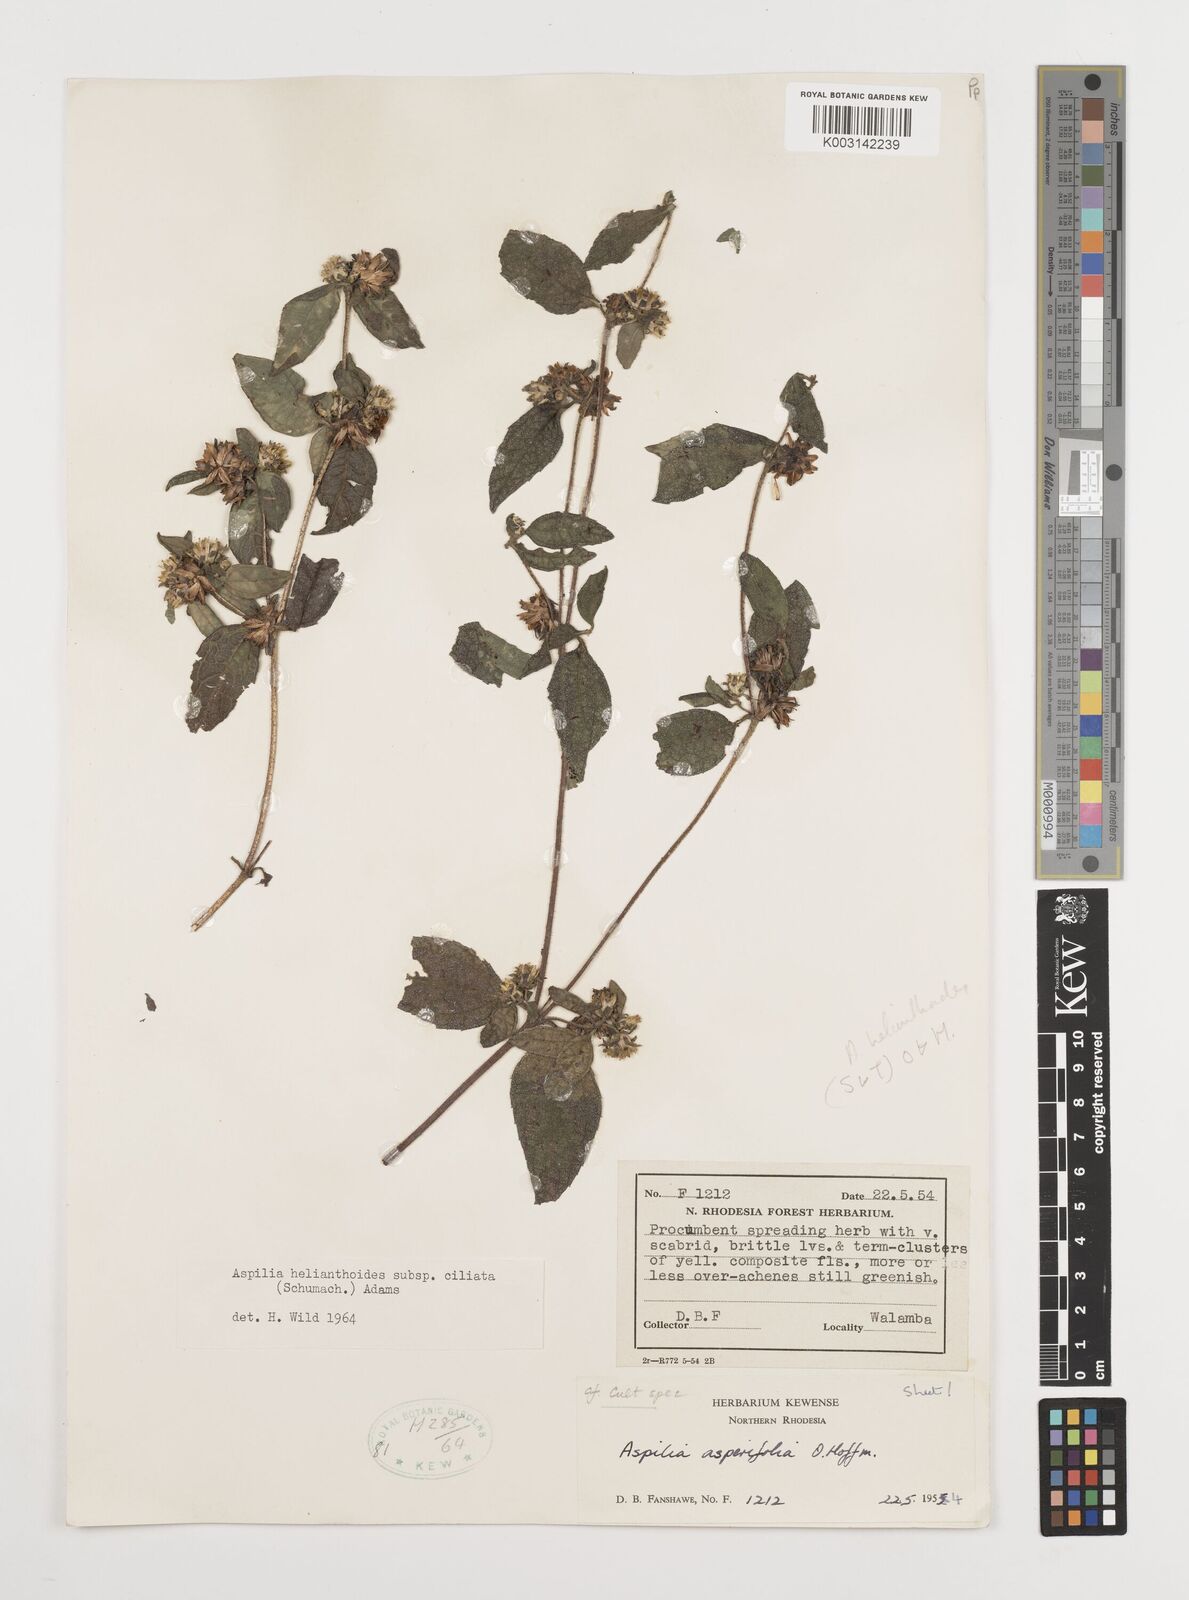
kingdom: Plantae
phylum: Tracheophyta
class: Magnoliopsida
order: Asterales
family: Asteraceae
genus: Aspilia
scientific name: Aspilia ciliata
